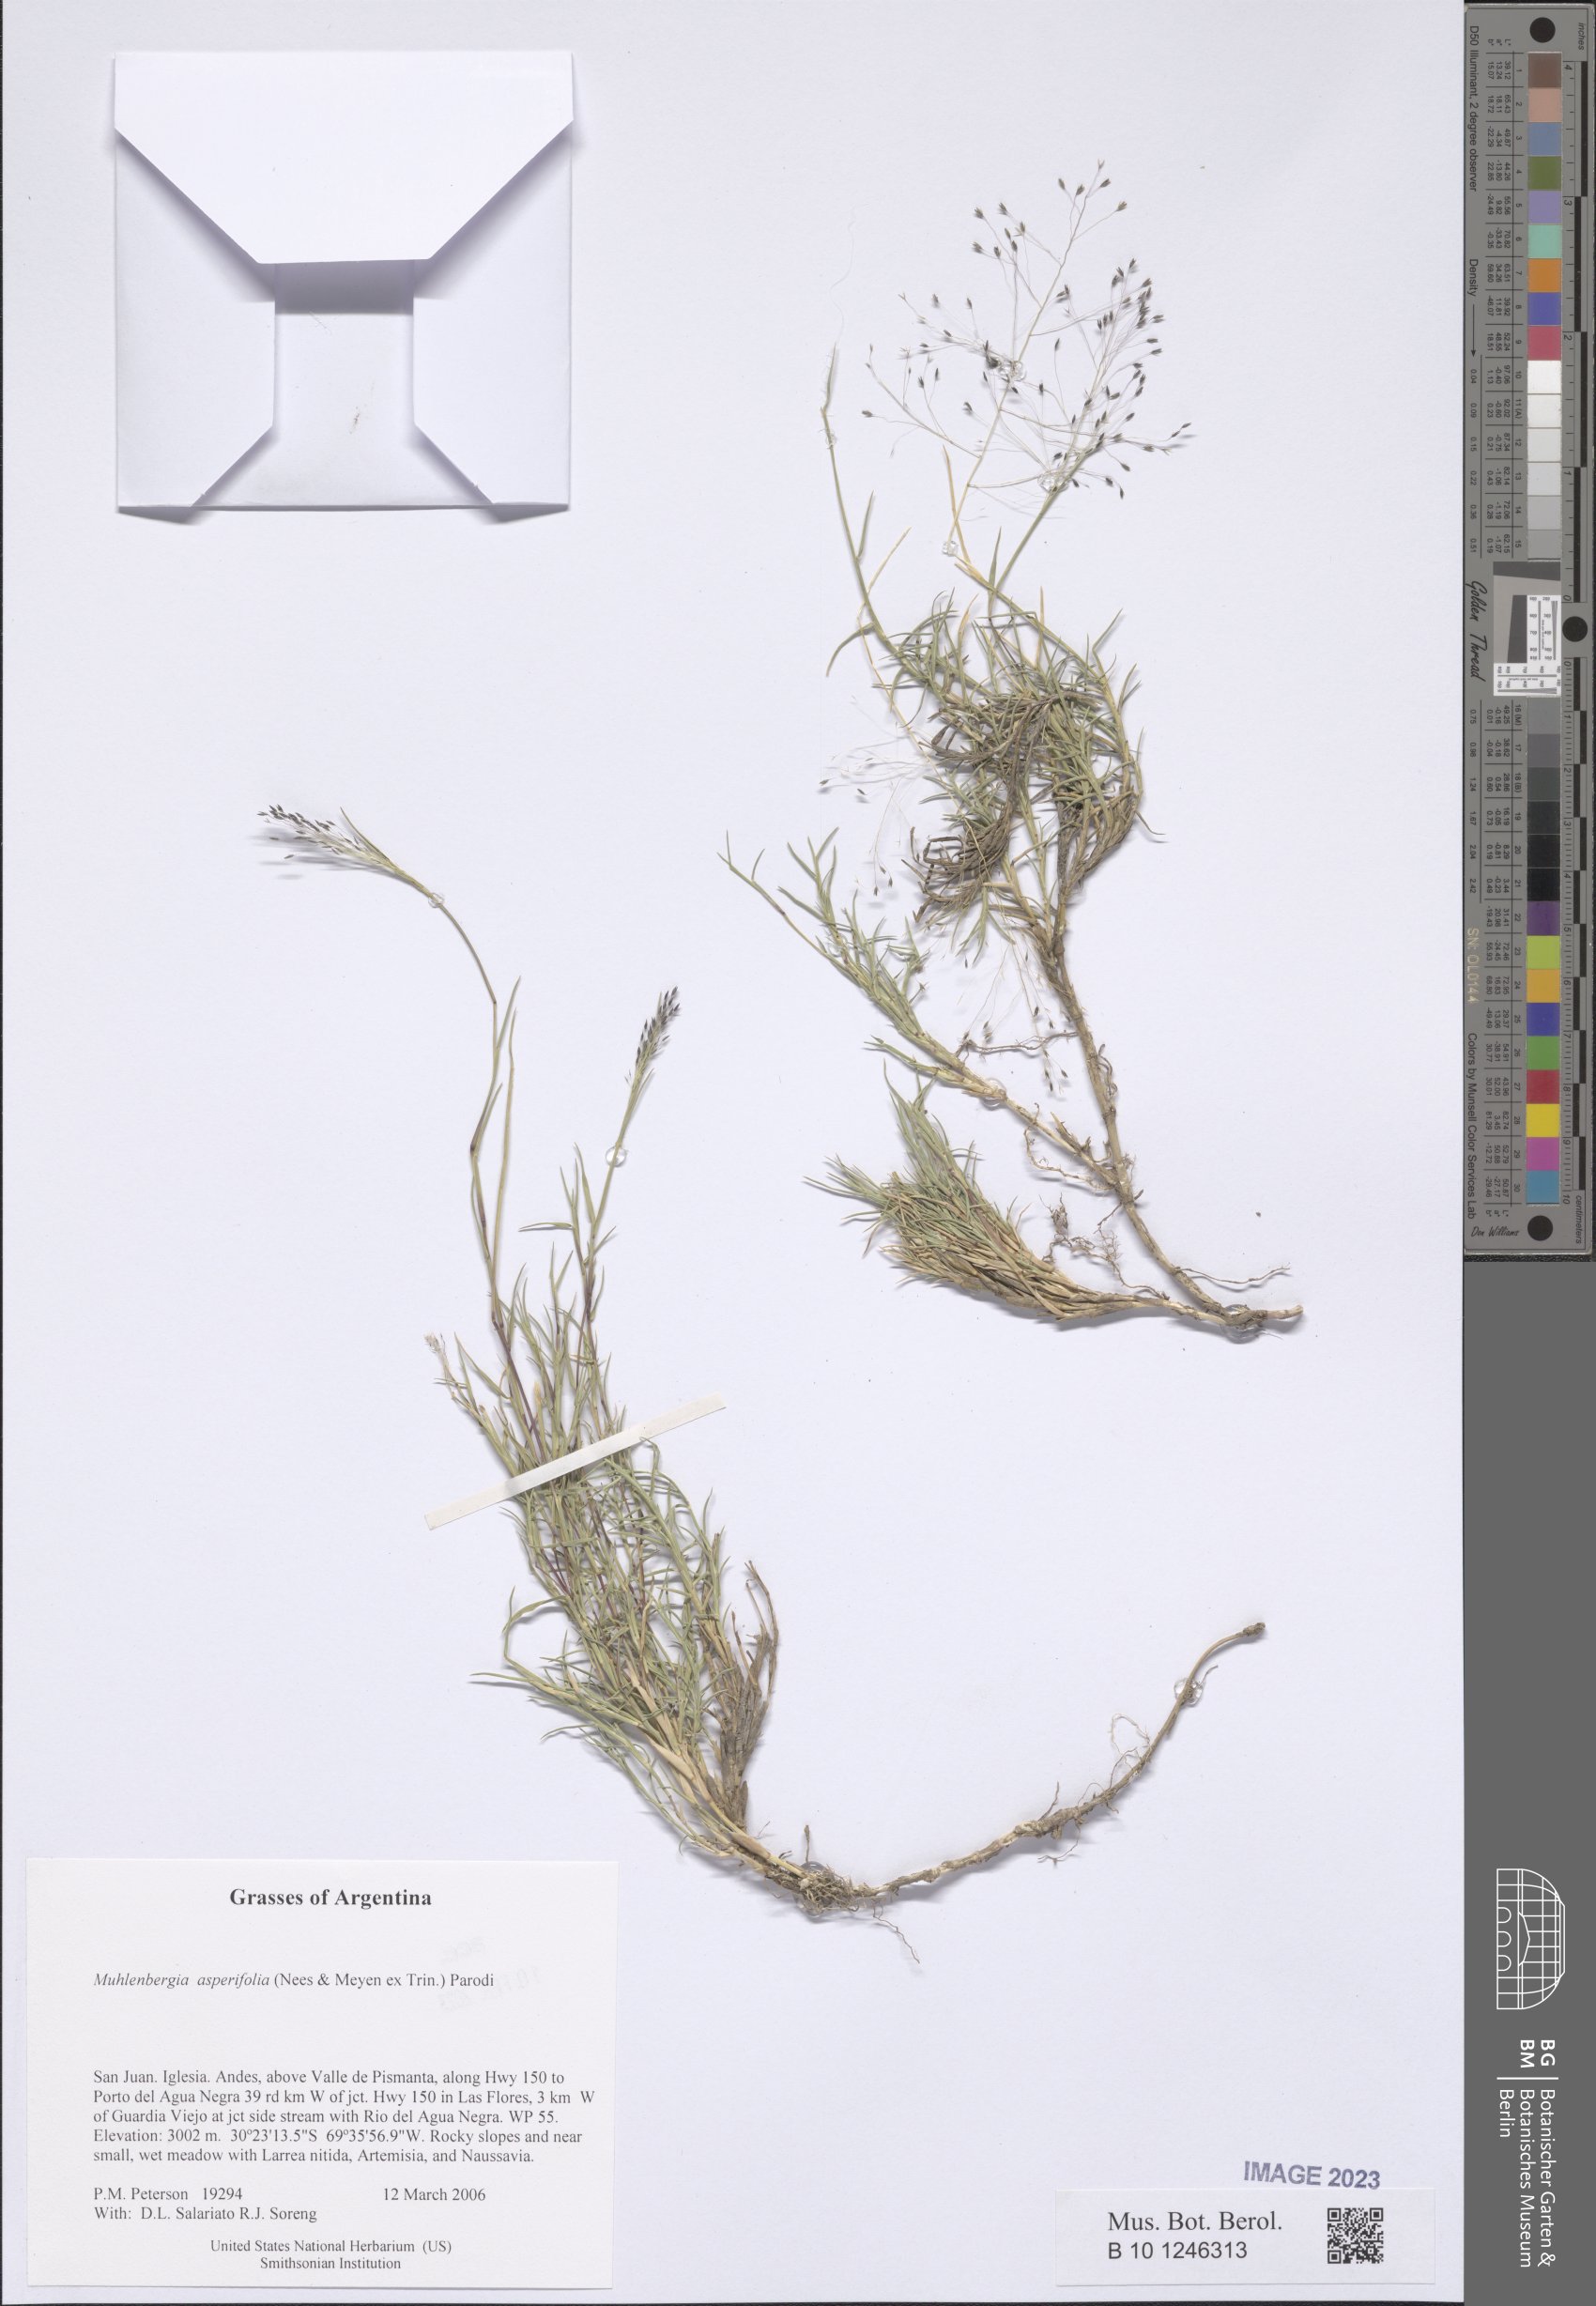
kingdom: Plantae
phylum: Tracheophyta
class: Liliopsida
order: Poales
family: Poaceae
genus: Muhlenbergia
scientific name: Muhlenbergia asperifolia
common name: Alkali muhly
